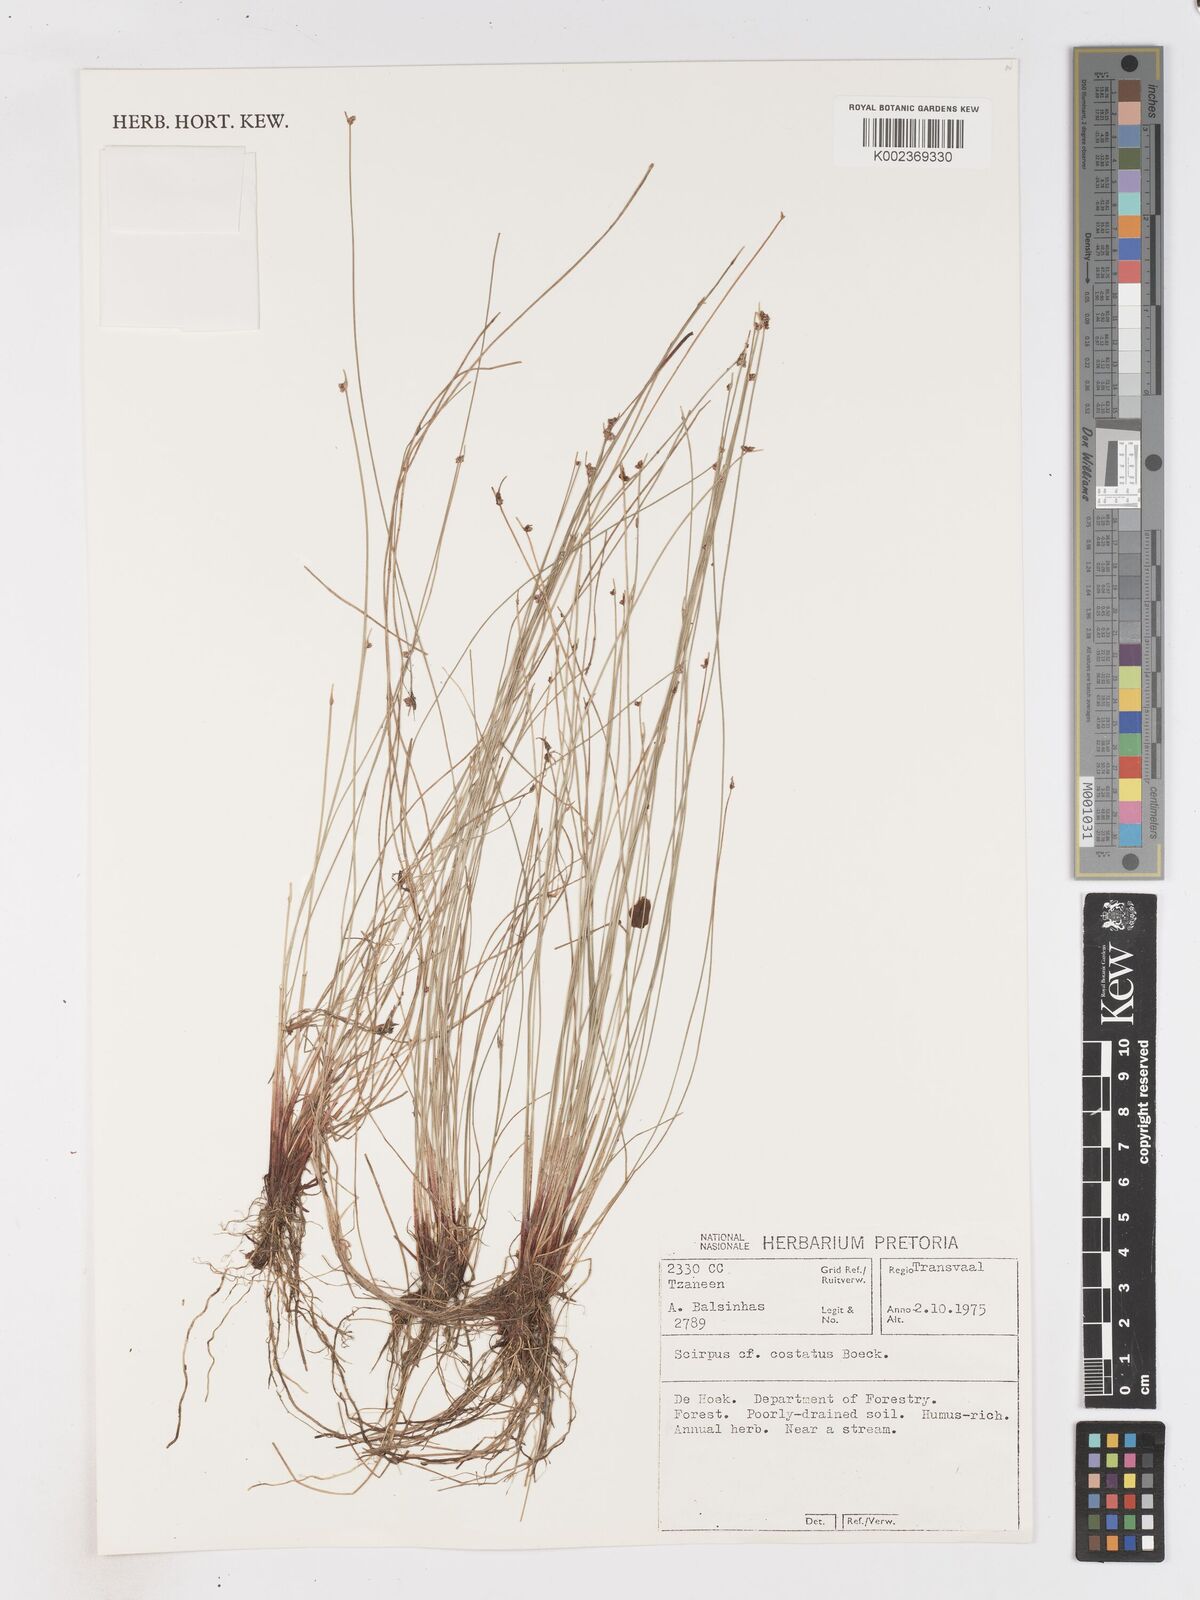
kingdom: Plantae
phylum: Tracheophyta
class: Liliopsida
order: Poales
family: Cyperaceae
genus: Isolepis
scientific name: Isolepis costata
